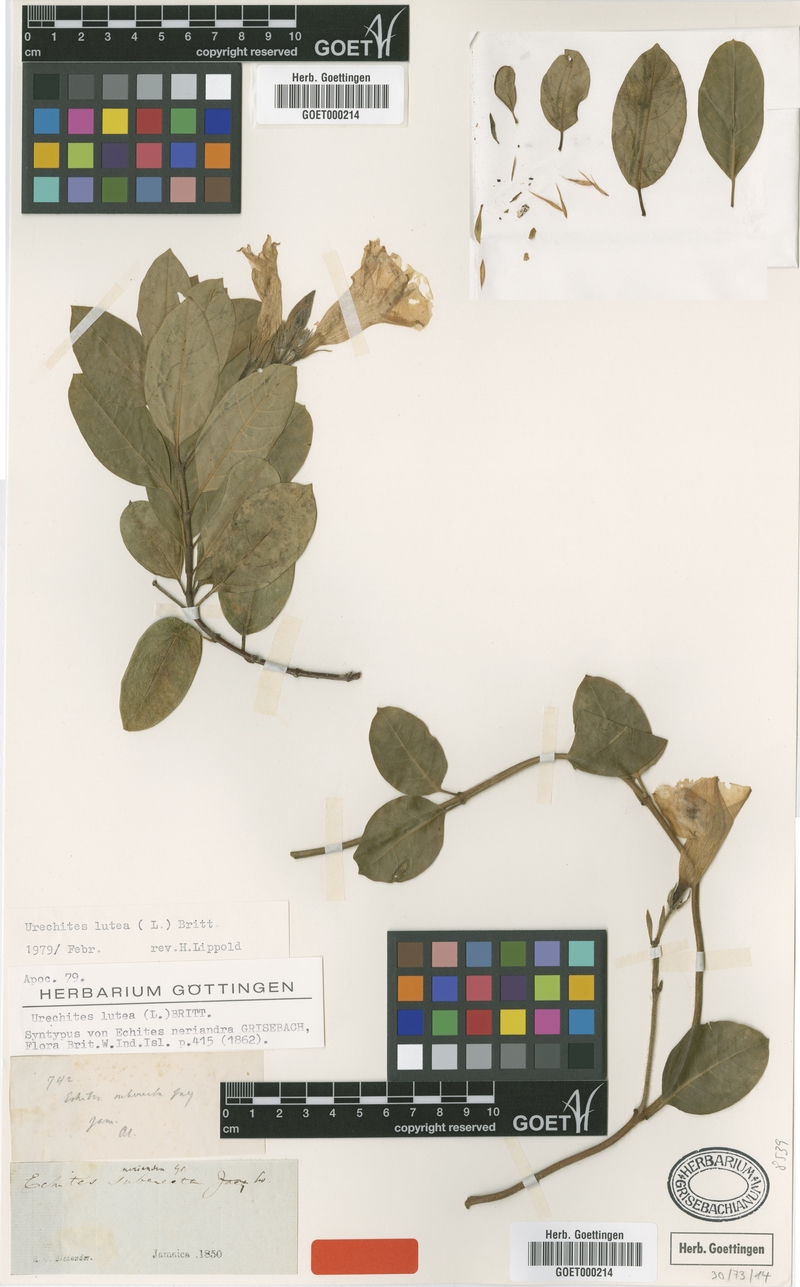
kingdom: Plantae
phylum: Tracheophyta
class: Magnoliopsida
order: Gentianales
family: Apocynaceae
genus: Pentalinon
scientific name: Pentalinon luteum
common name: Licebush
